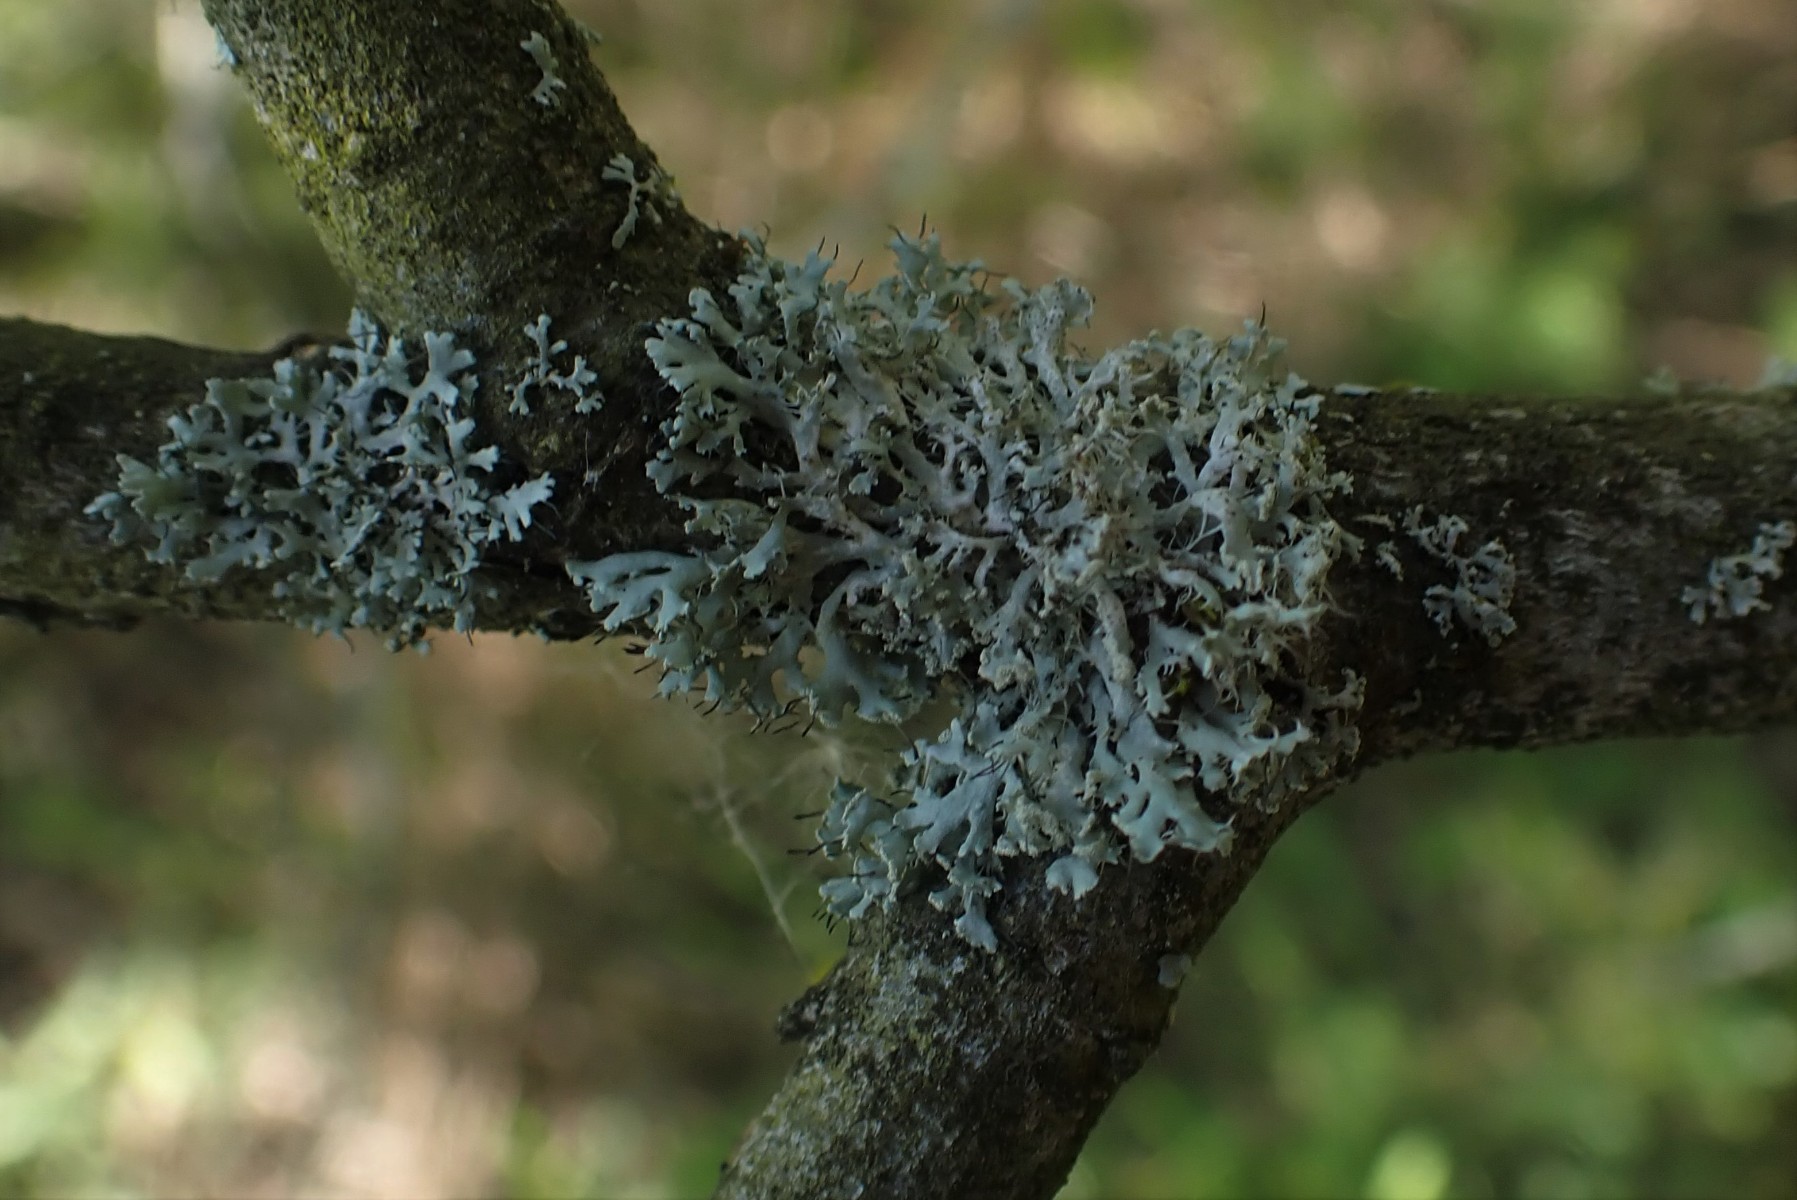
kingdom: Fungi
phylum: Ascomycota
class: Lecanoromycetes
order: Caliciales
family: Physciaceae
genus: Physcia
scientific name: Physcia tenella
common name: spæd rosetlav
